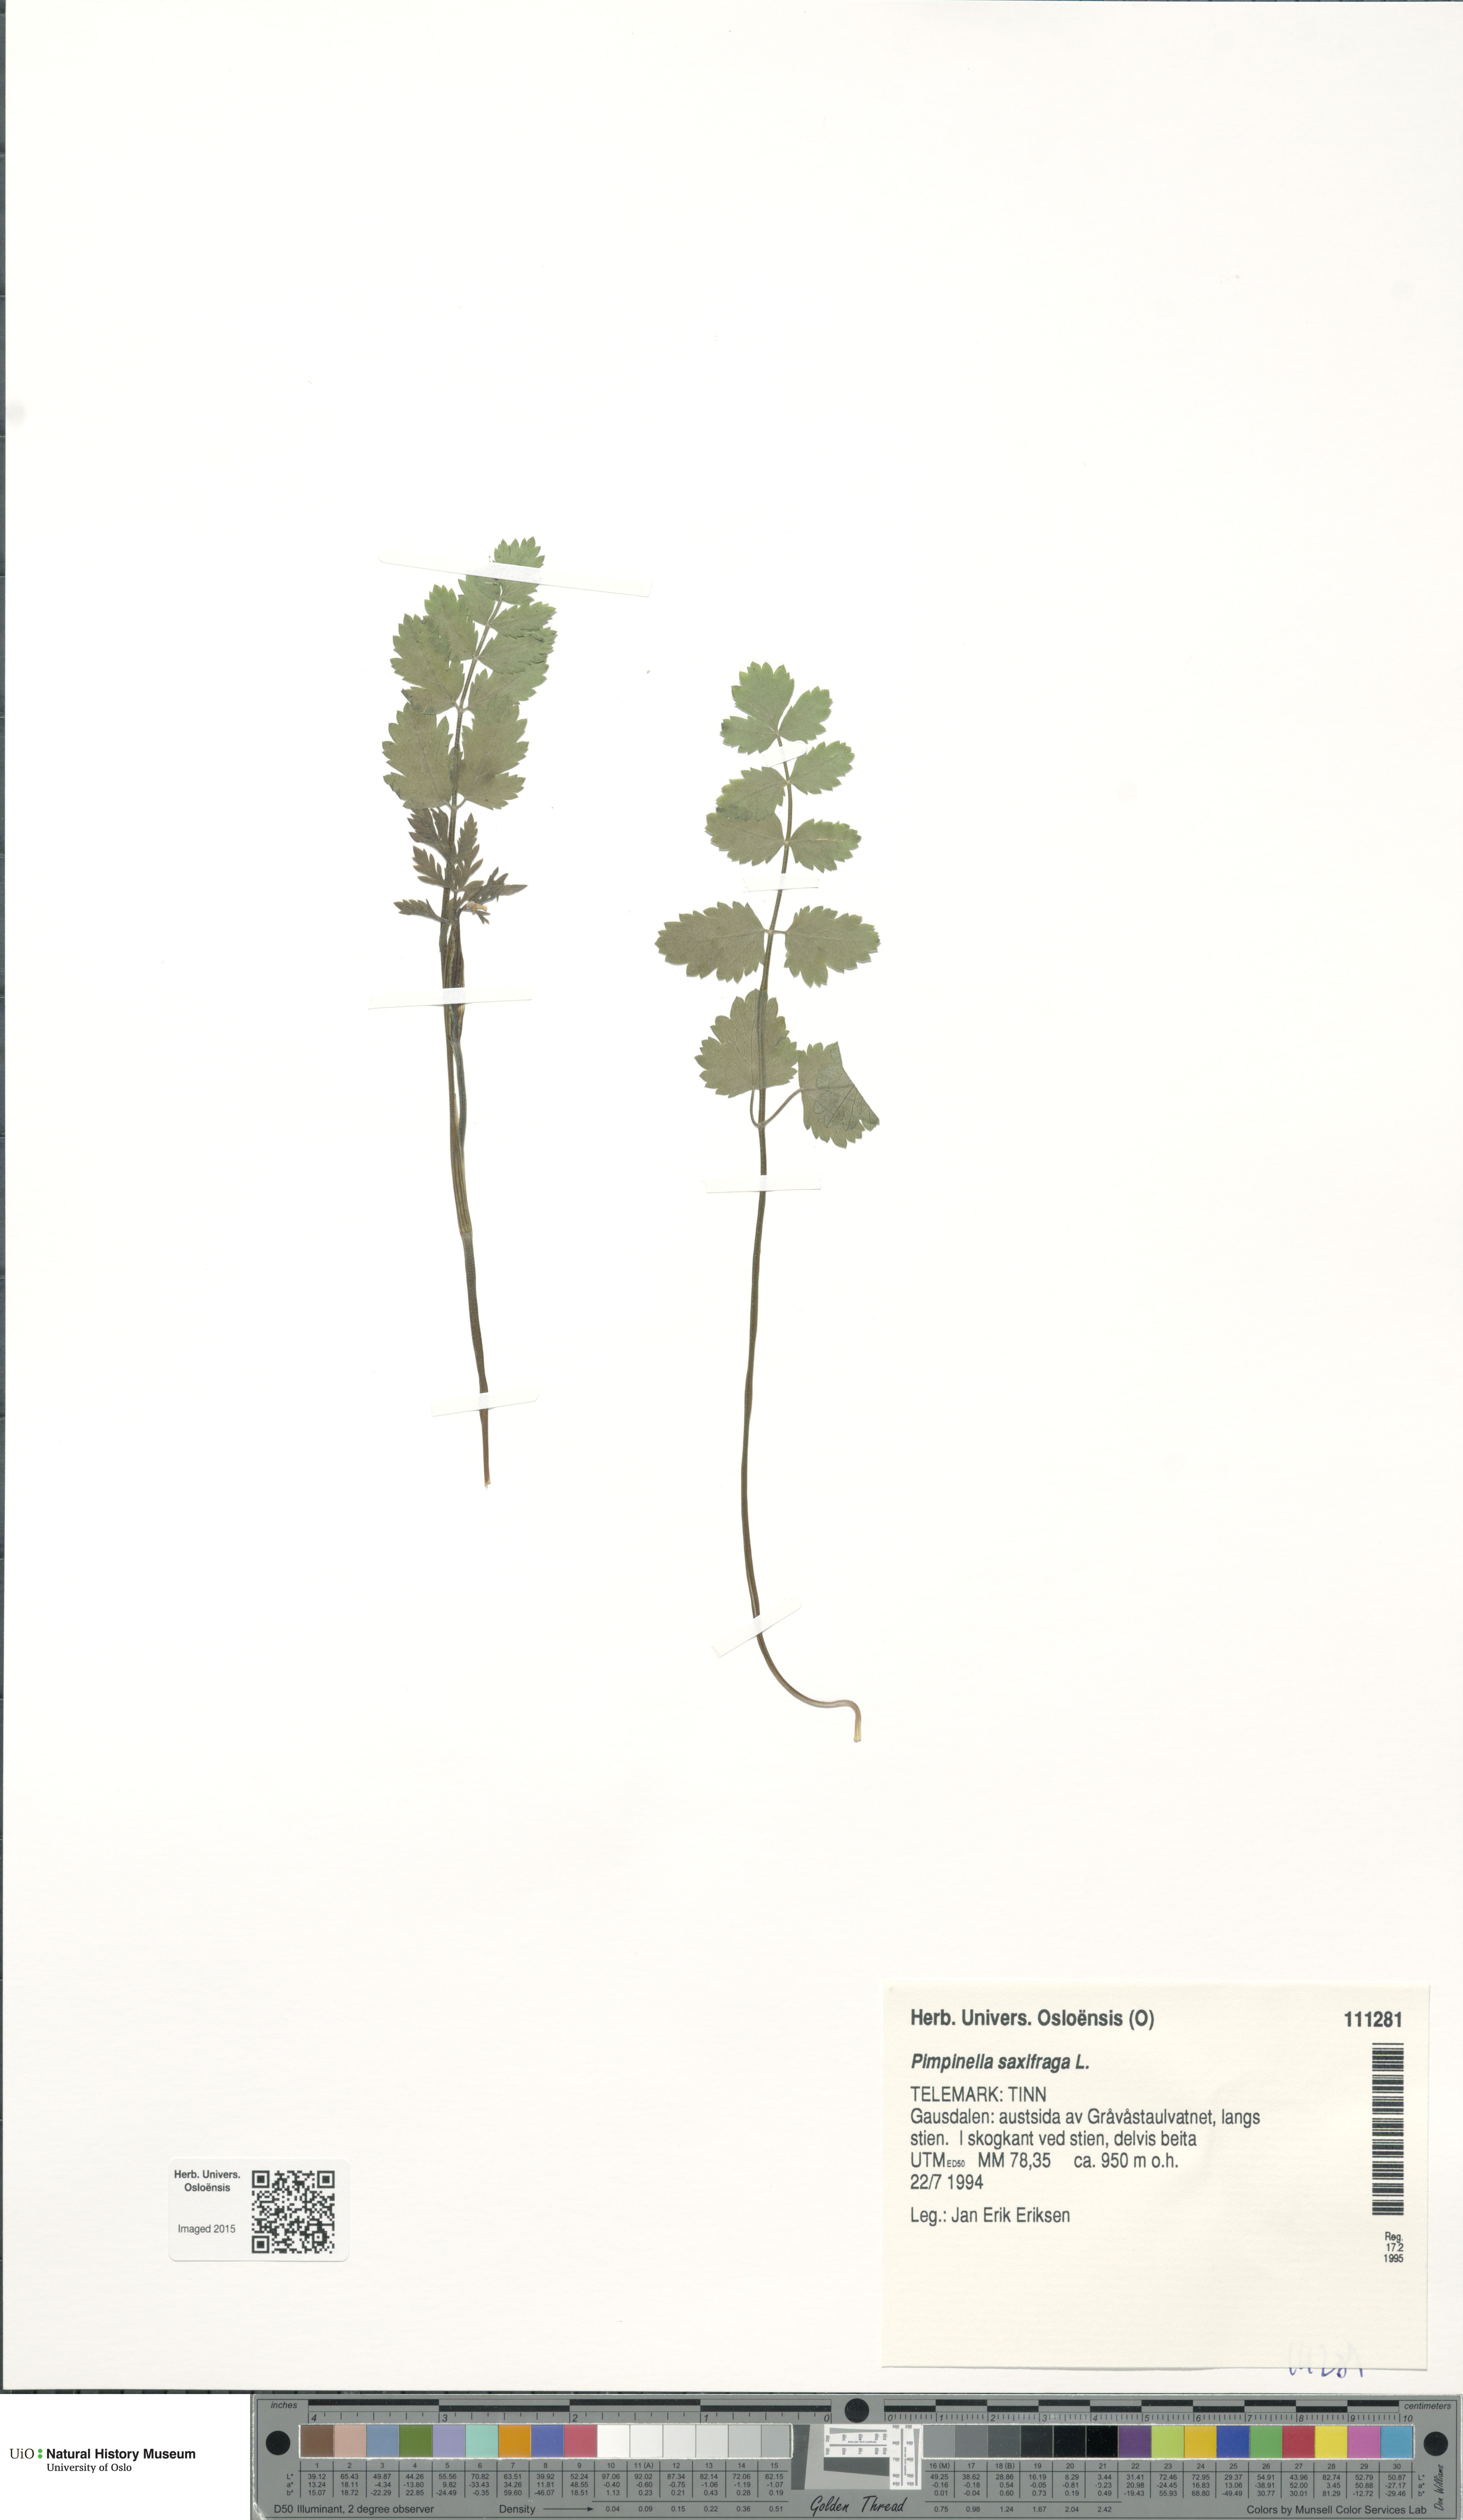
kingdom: Plantae
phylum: Tracheophyta
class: Magnoliopsida
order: Apiales
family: Apiaceae
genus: Pimpinella
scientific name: Pimpinella saxifraga
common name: Burnet-saxifrage
